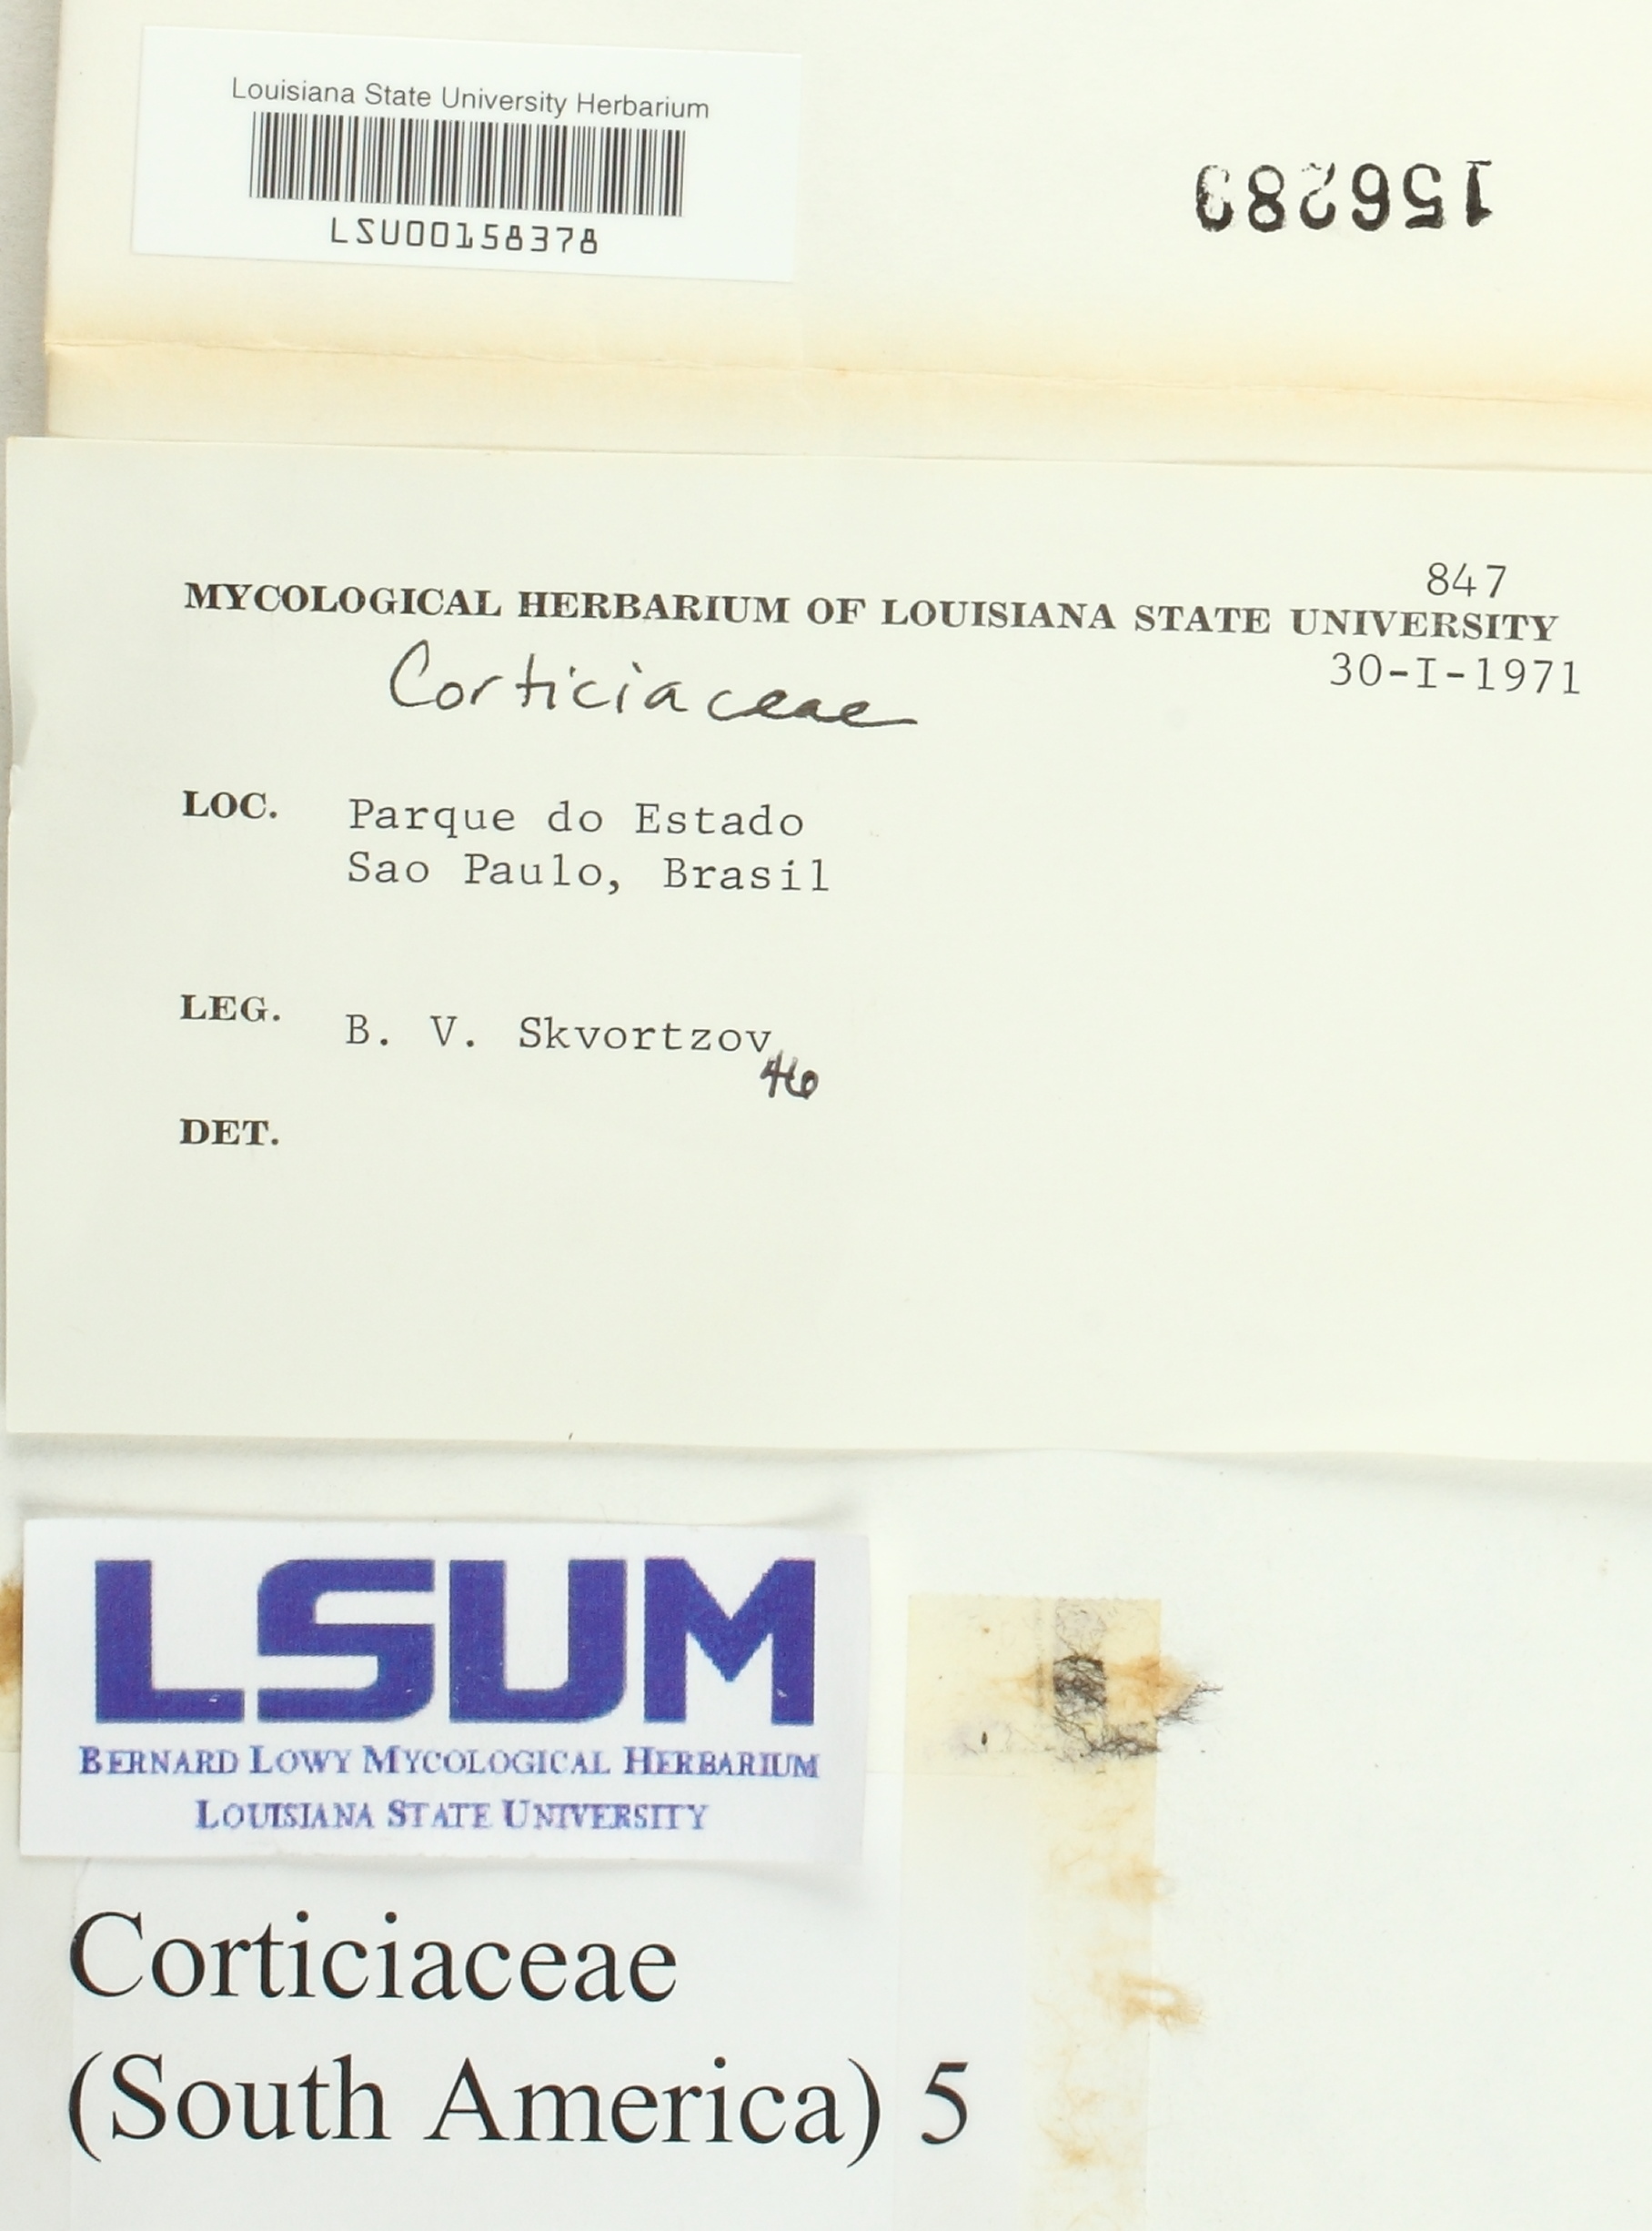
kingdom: Fungi
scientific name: Fungi
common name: Fungi
